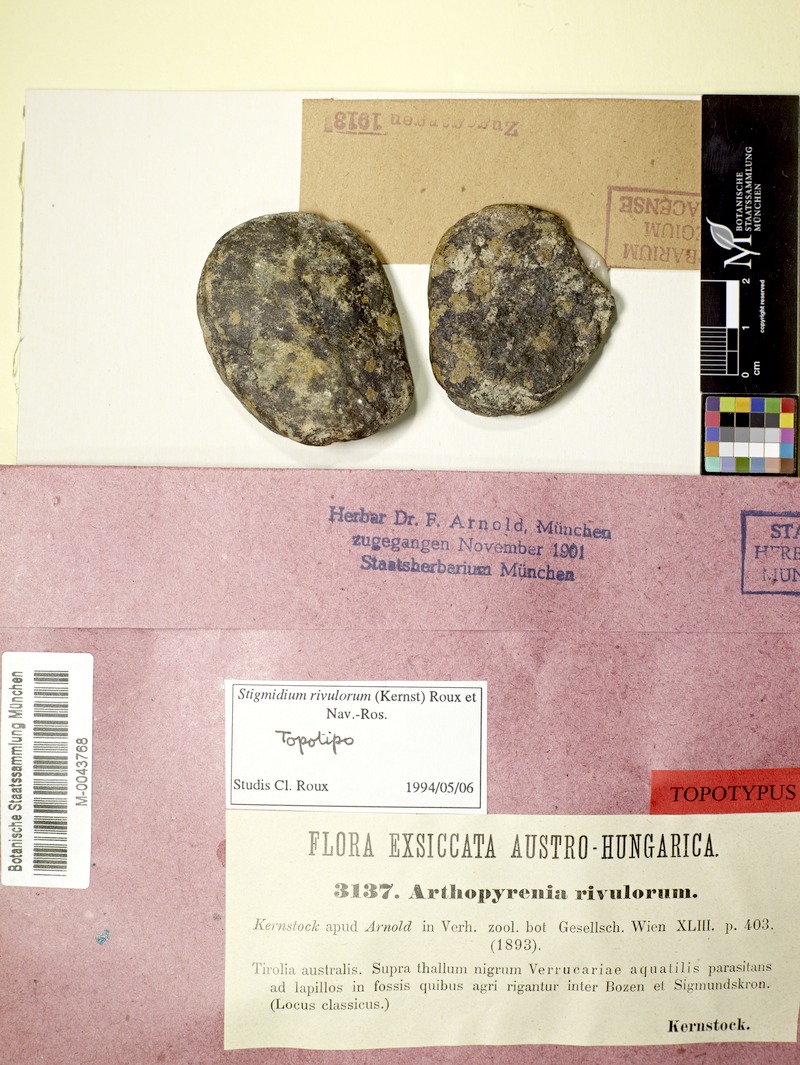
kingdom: Fungi
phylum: Ascomycota
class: Dothideomycetes
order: Mycosphaerellales
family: Mycosphaerellaceae
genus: Stigmidium
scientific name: Stigmidium rivulorum
